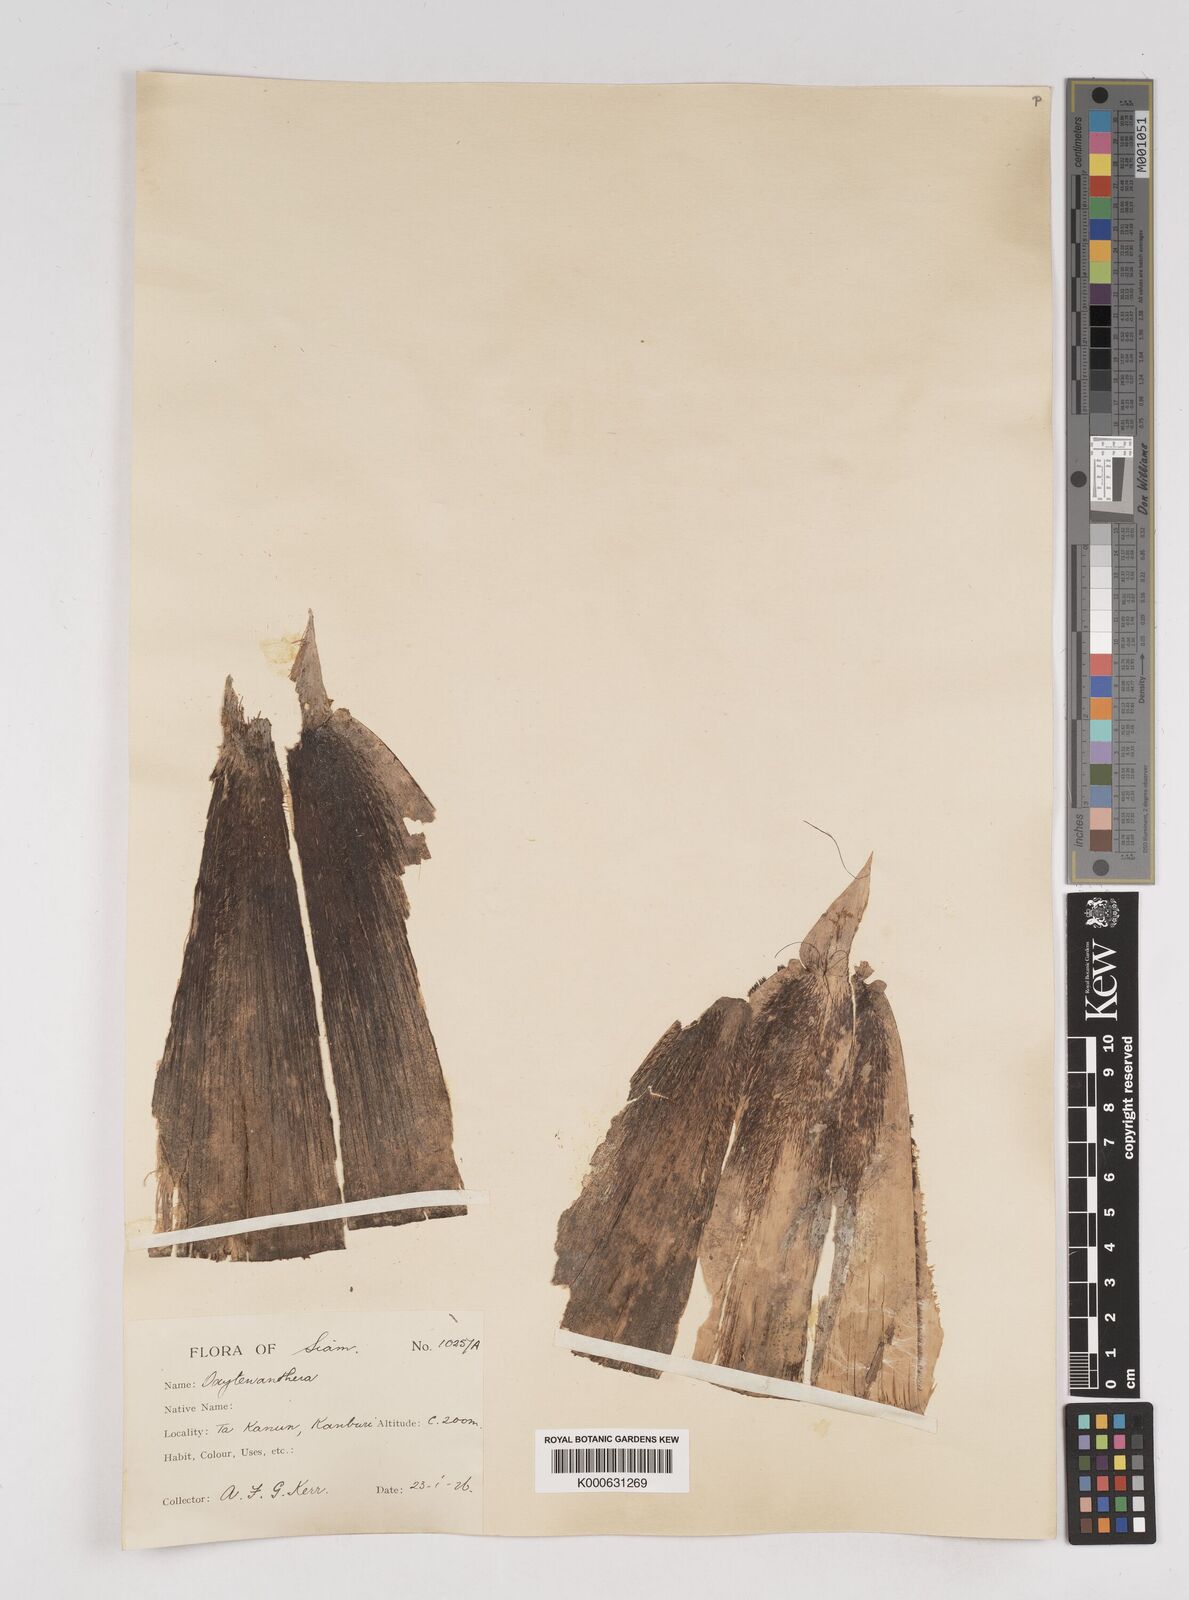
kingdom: Plantae
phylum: Tracheophyta
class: Liliopsida
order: Poales
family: Poaceae
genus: Gigantochloa
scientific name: Gigantochloa
